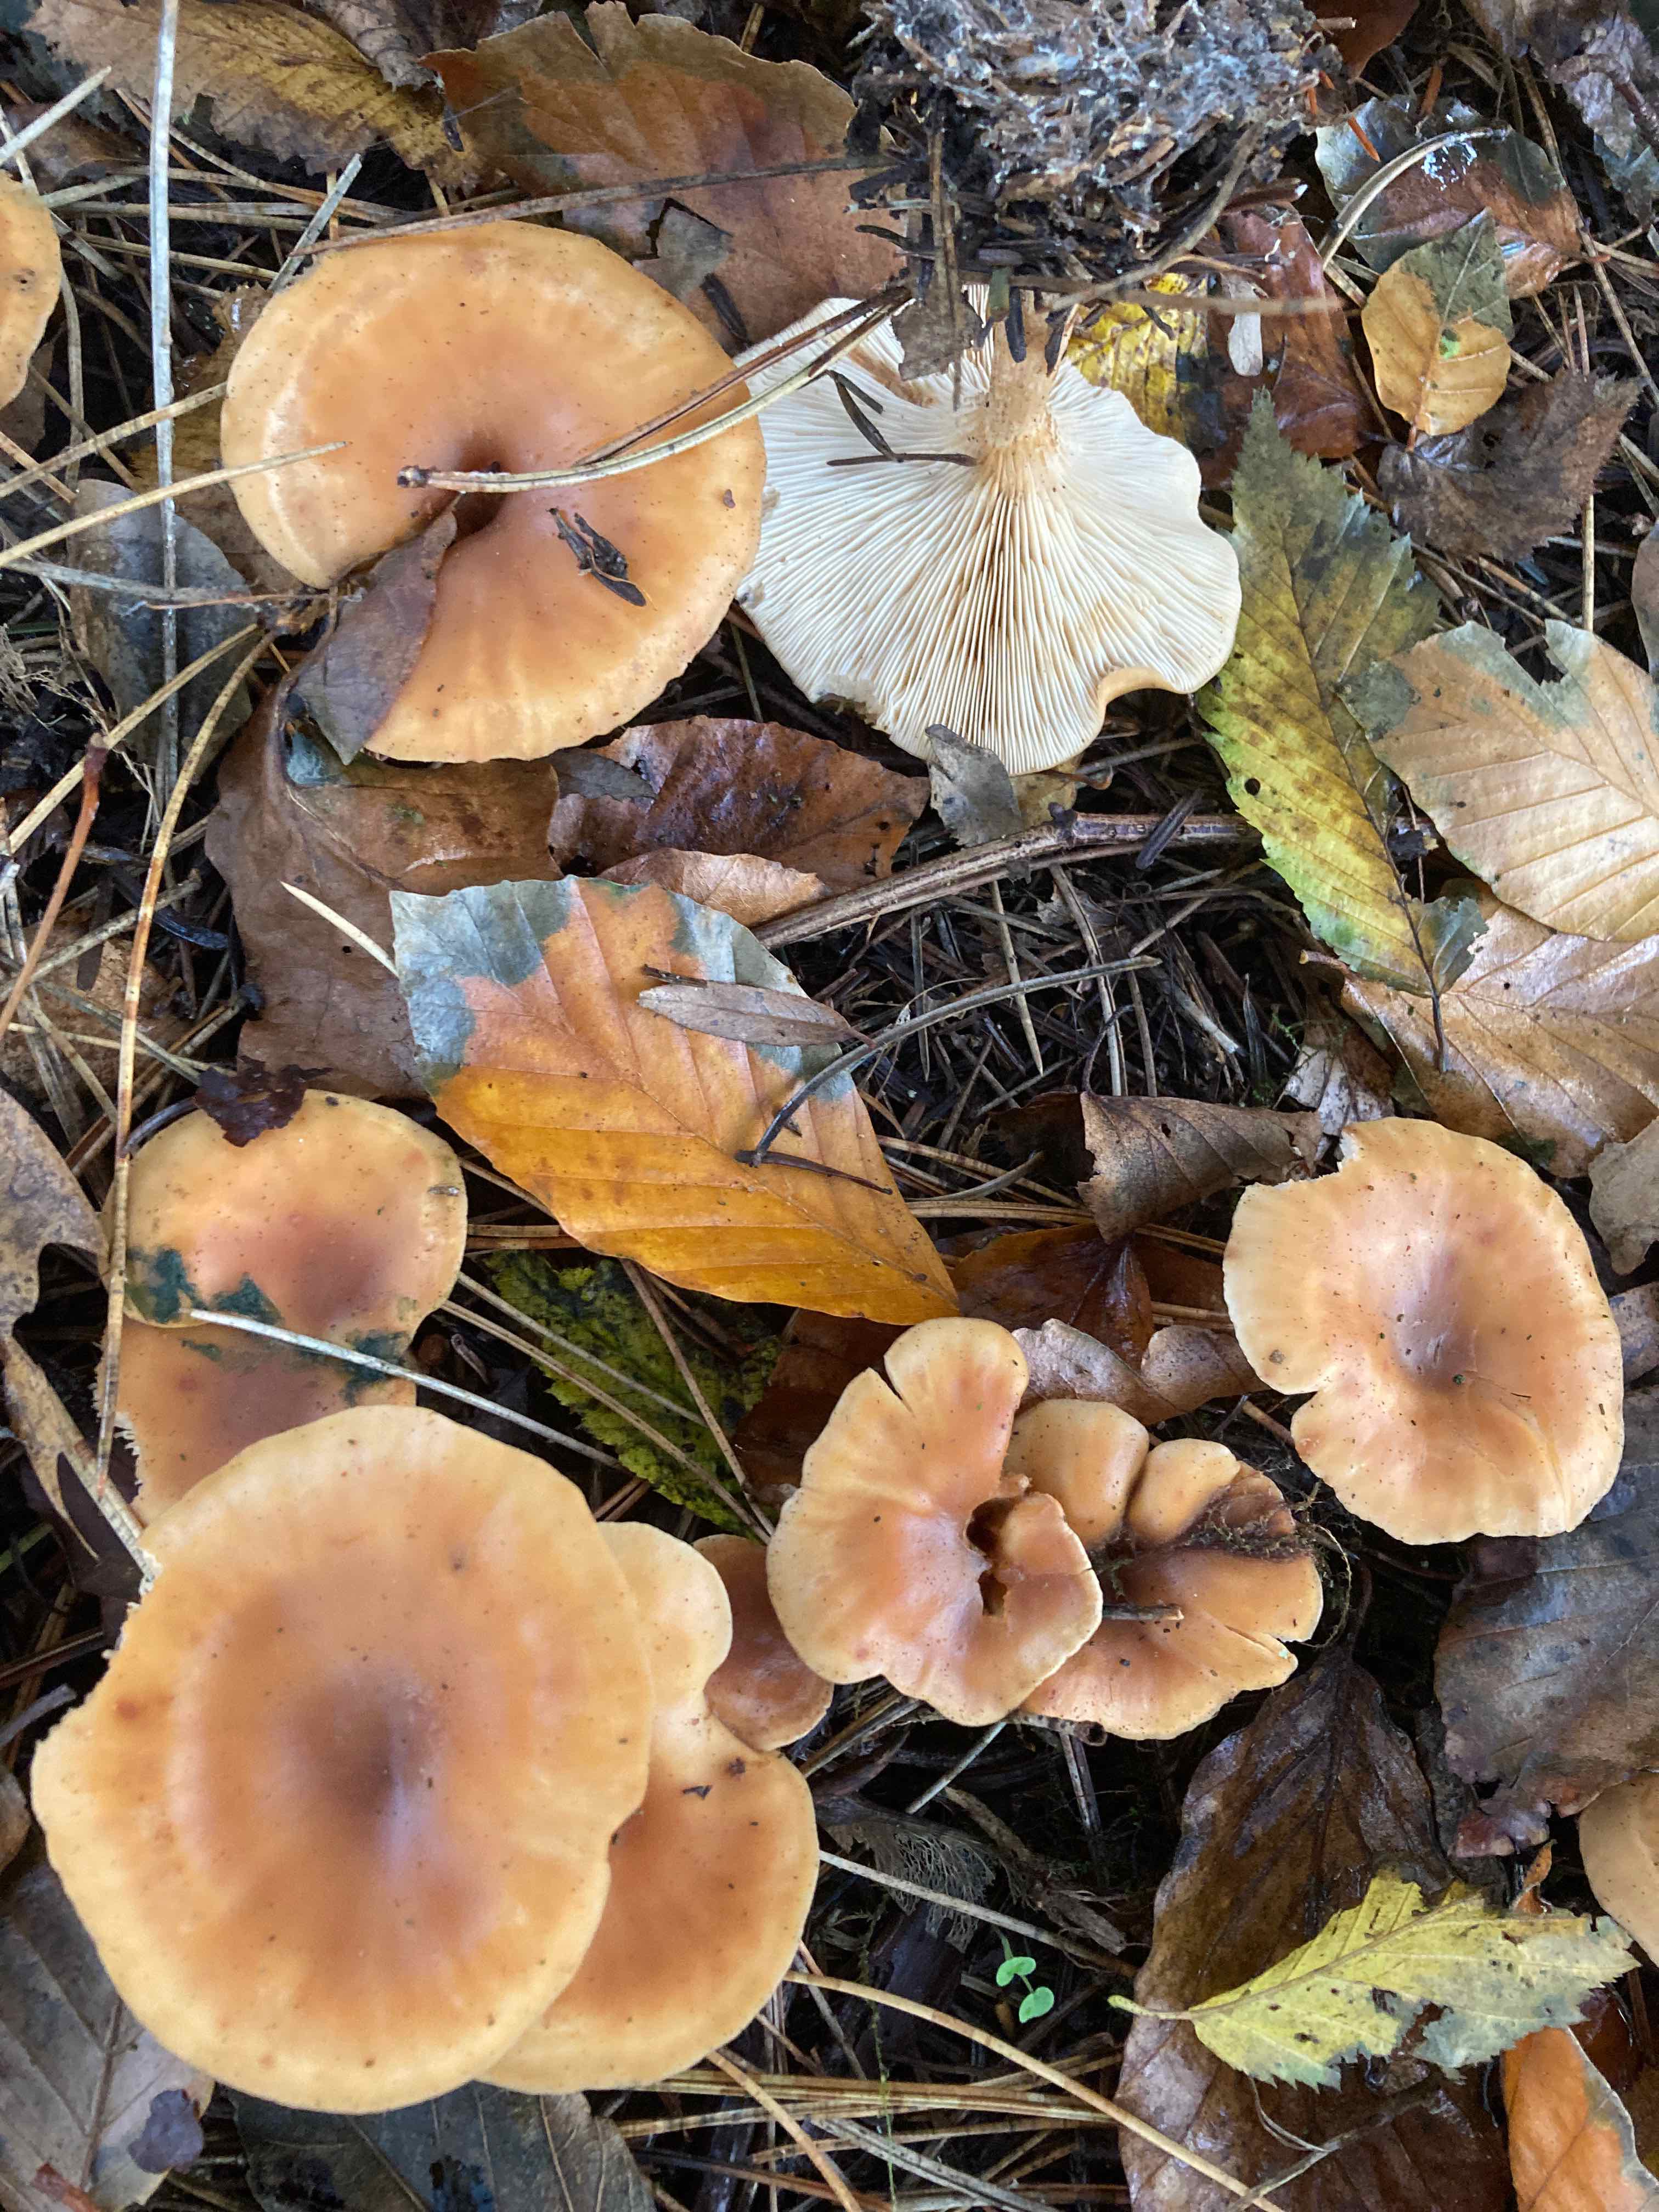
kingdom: Fungi
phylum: Basidiomycota
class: Agaricomycetes
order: Agaricales
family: Tricholomataceae
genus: Paralepista
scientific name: Paralepista flaccida
